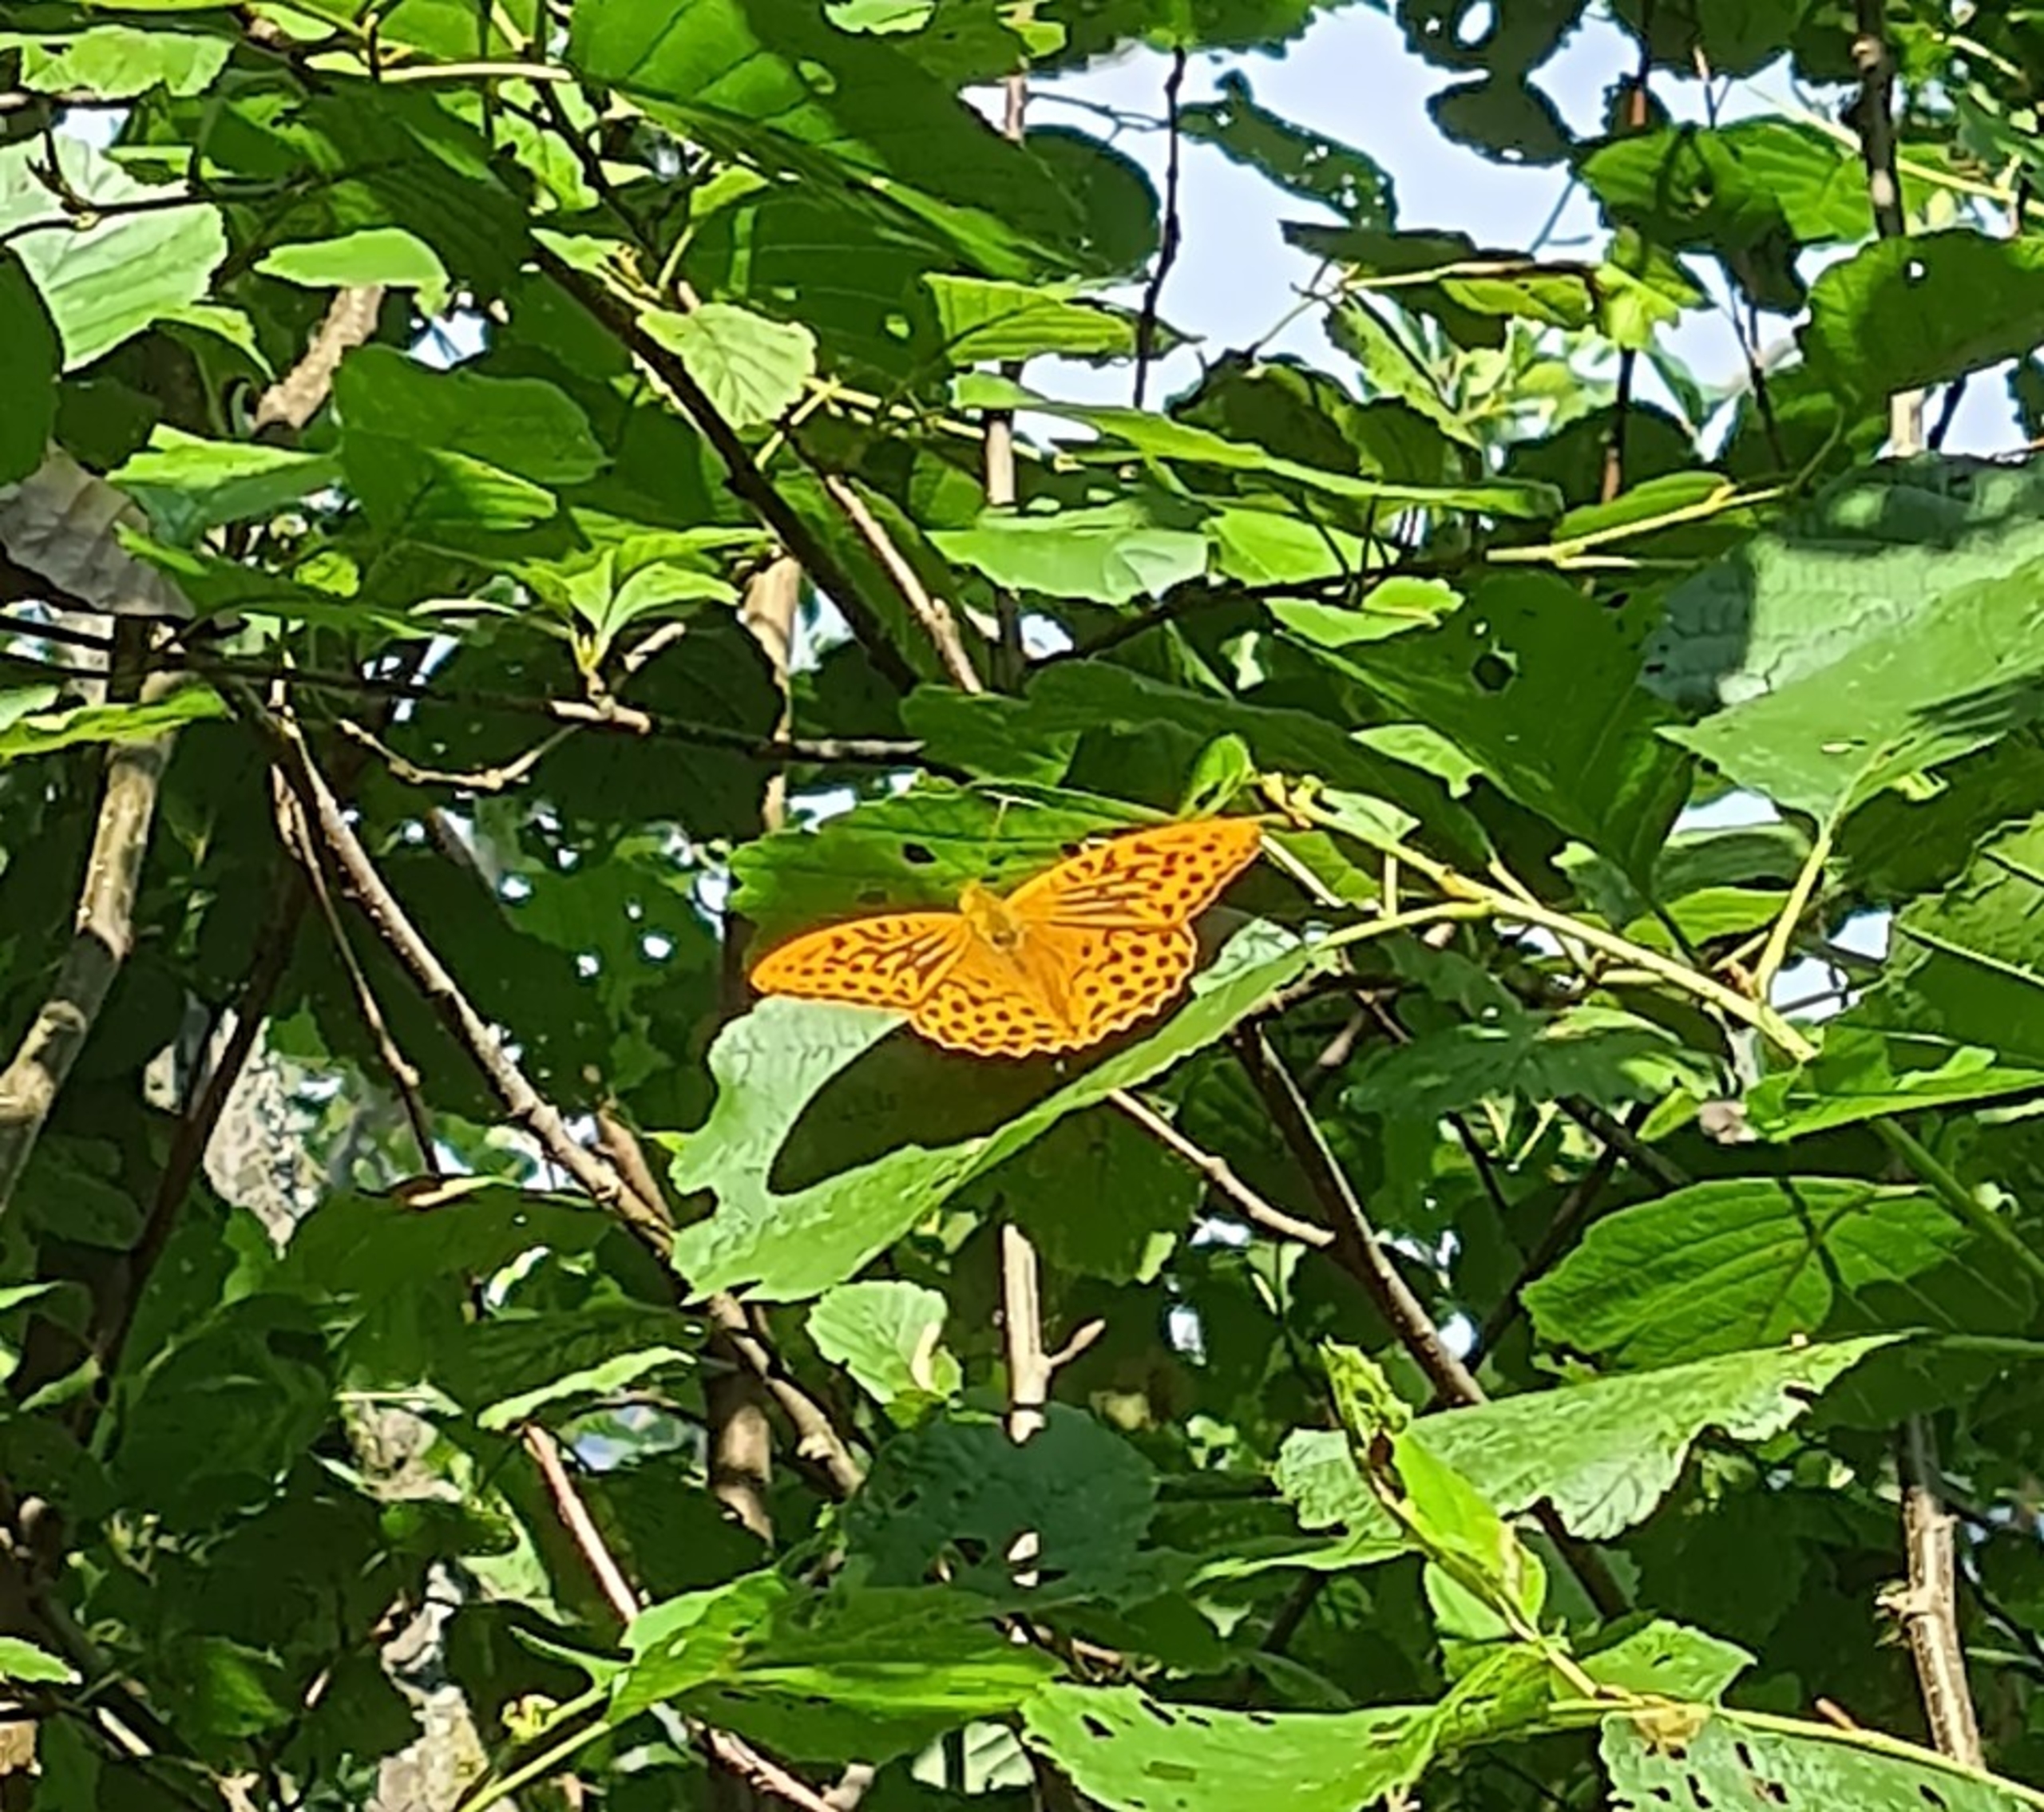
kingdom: Animalia
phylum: Arthropoda
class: Insecta
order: Lepidoptera
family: Nymphalidae
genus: Argynnis
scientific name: Argynnis paphia
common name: Kejserkåbe
